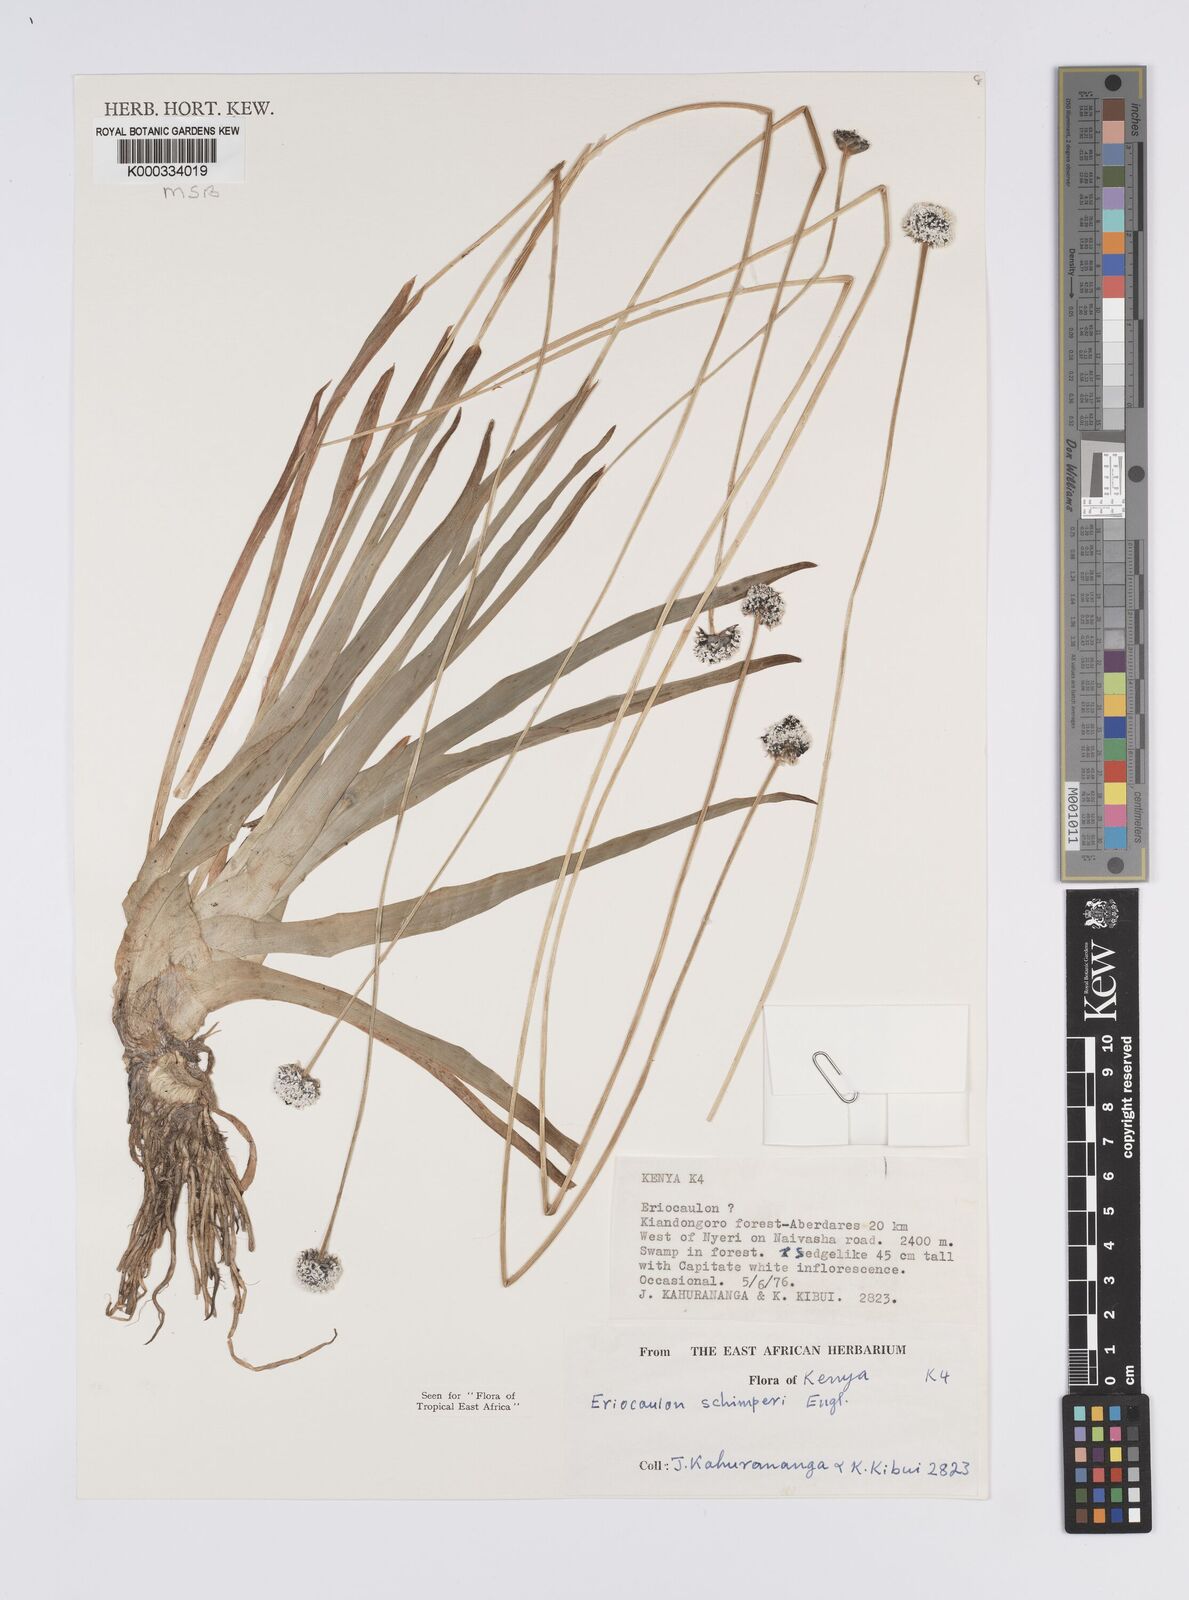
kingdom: Plantae
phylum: Tracheophyta
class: Liliopsida
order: Poales
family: Eriocaulaceae
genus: Eriocaulon
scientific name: Eriocaulon
